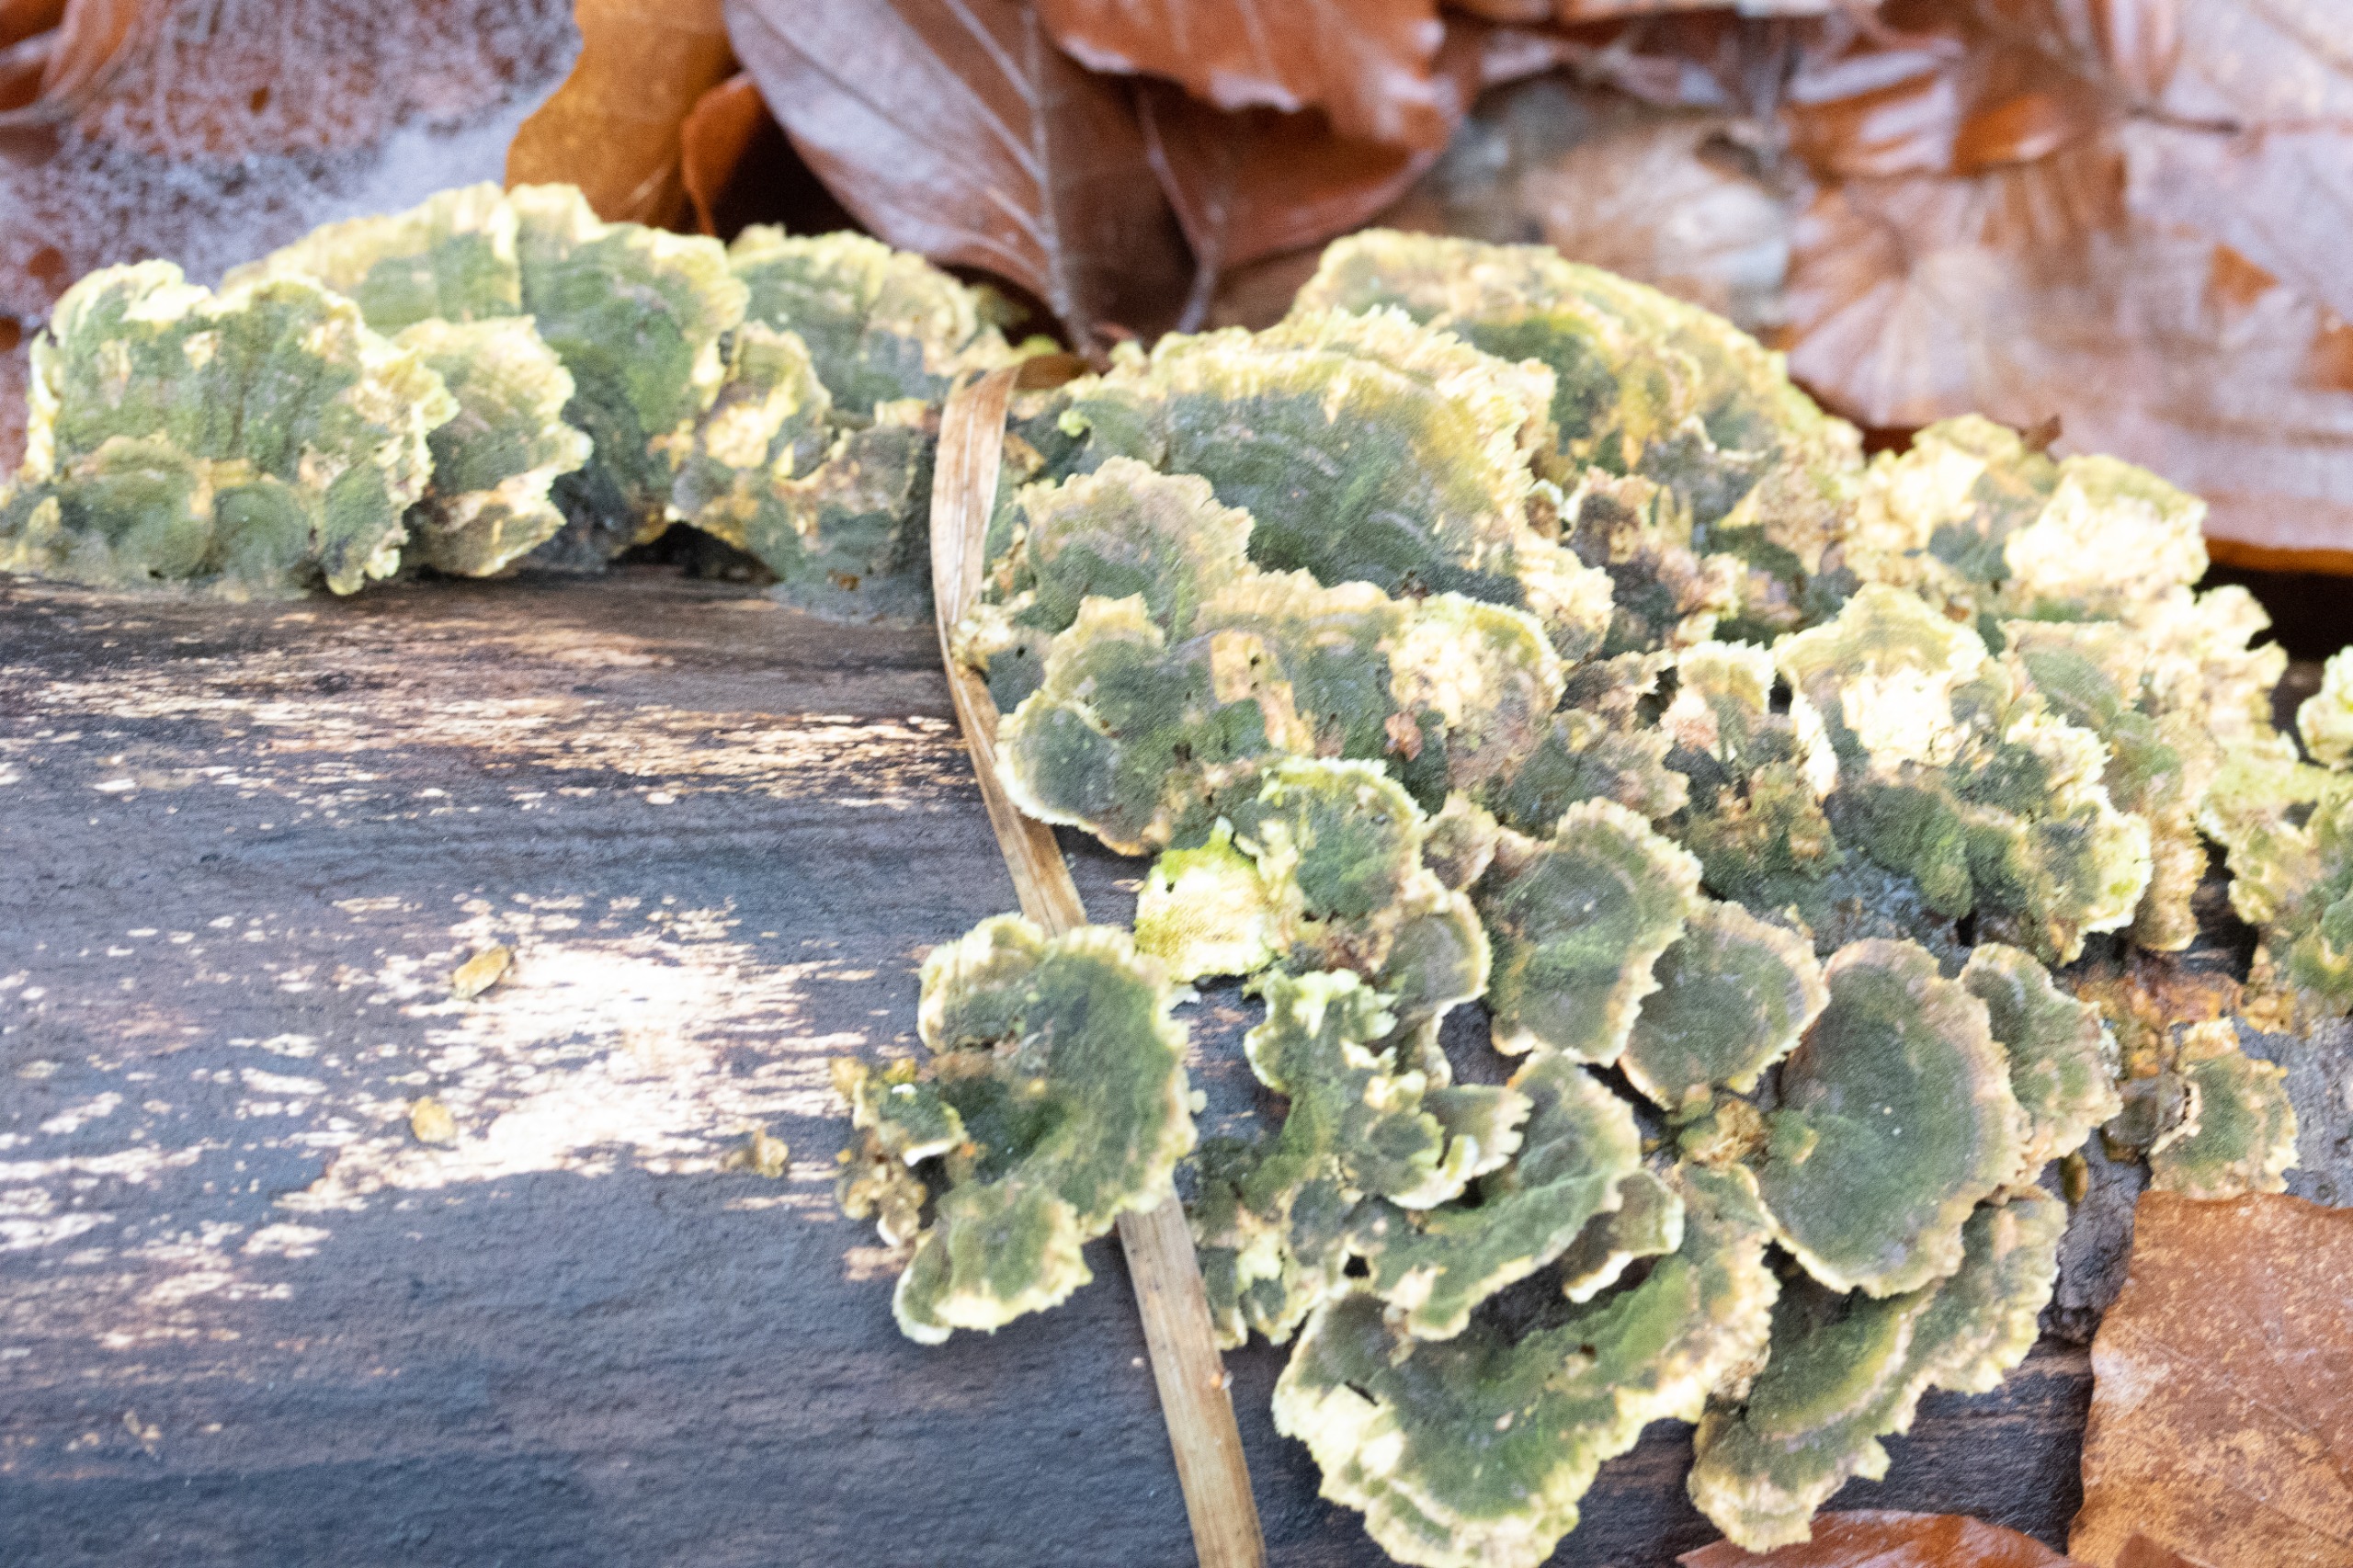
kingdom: Fungi
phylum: Basidiomycota
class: Agaricomycetes
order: Polyporales
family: Polyporaceae
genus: Trametes
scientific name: Trametes versicolor
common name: Broget læderporesvamp
